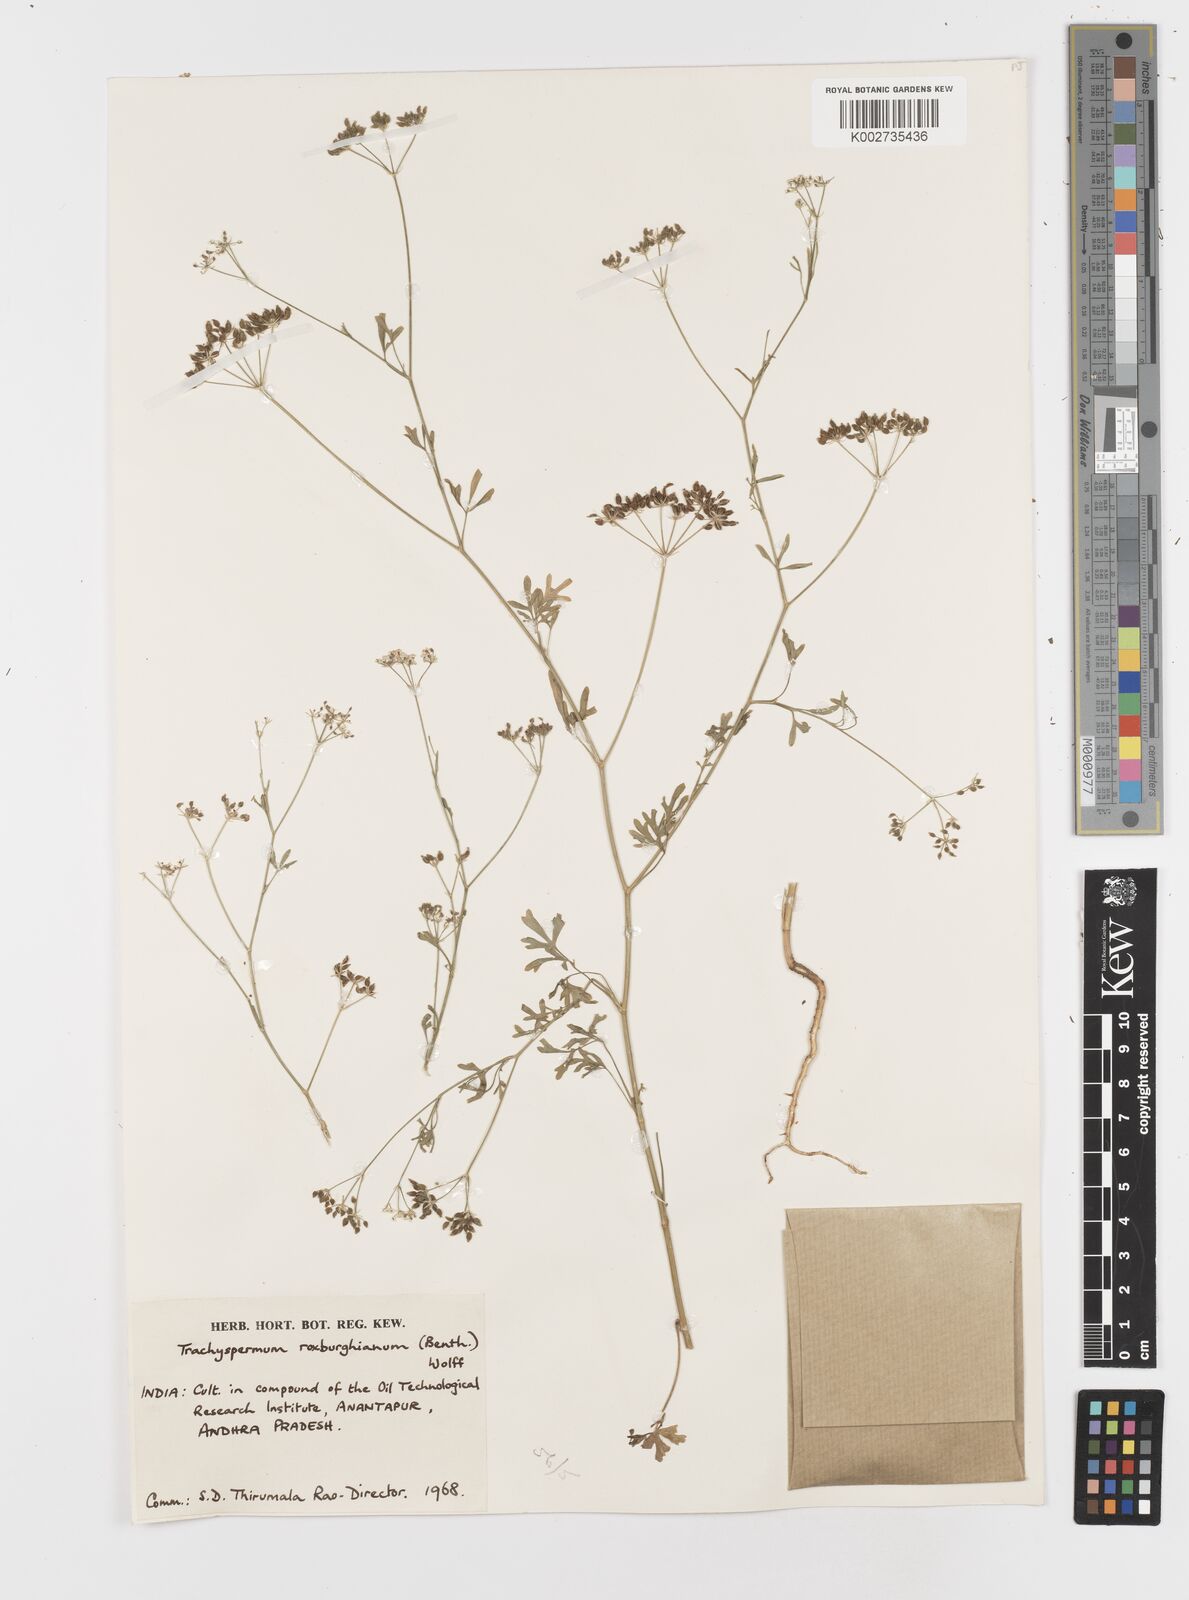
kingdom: Plantae
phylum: Tracheophyta
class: Magnoliopsida
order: Apiales
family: Apiaceae
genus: Psammogeton
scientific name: Psammogeton involucratum
